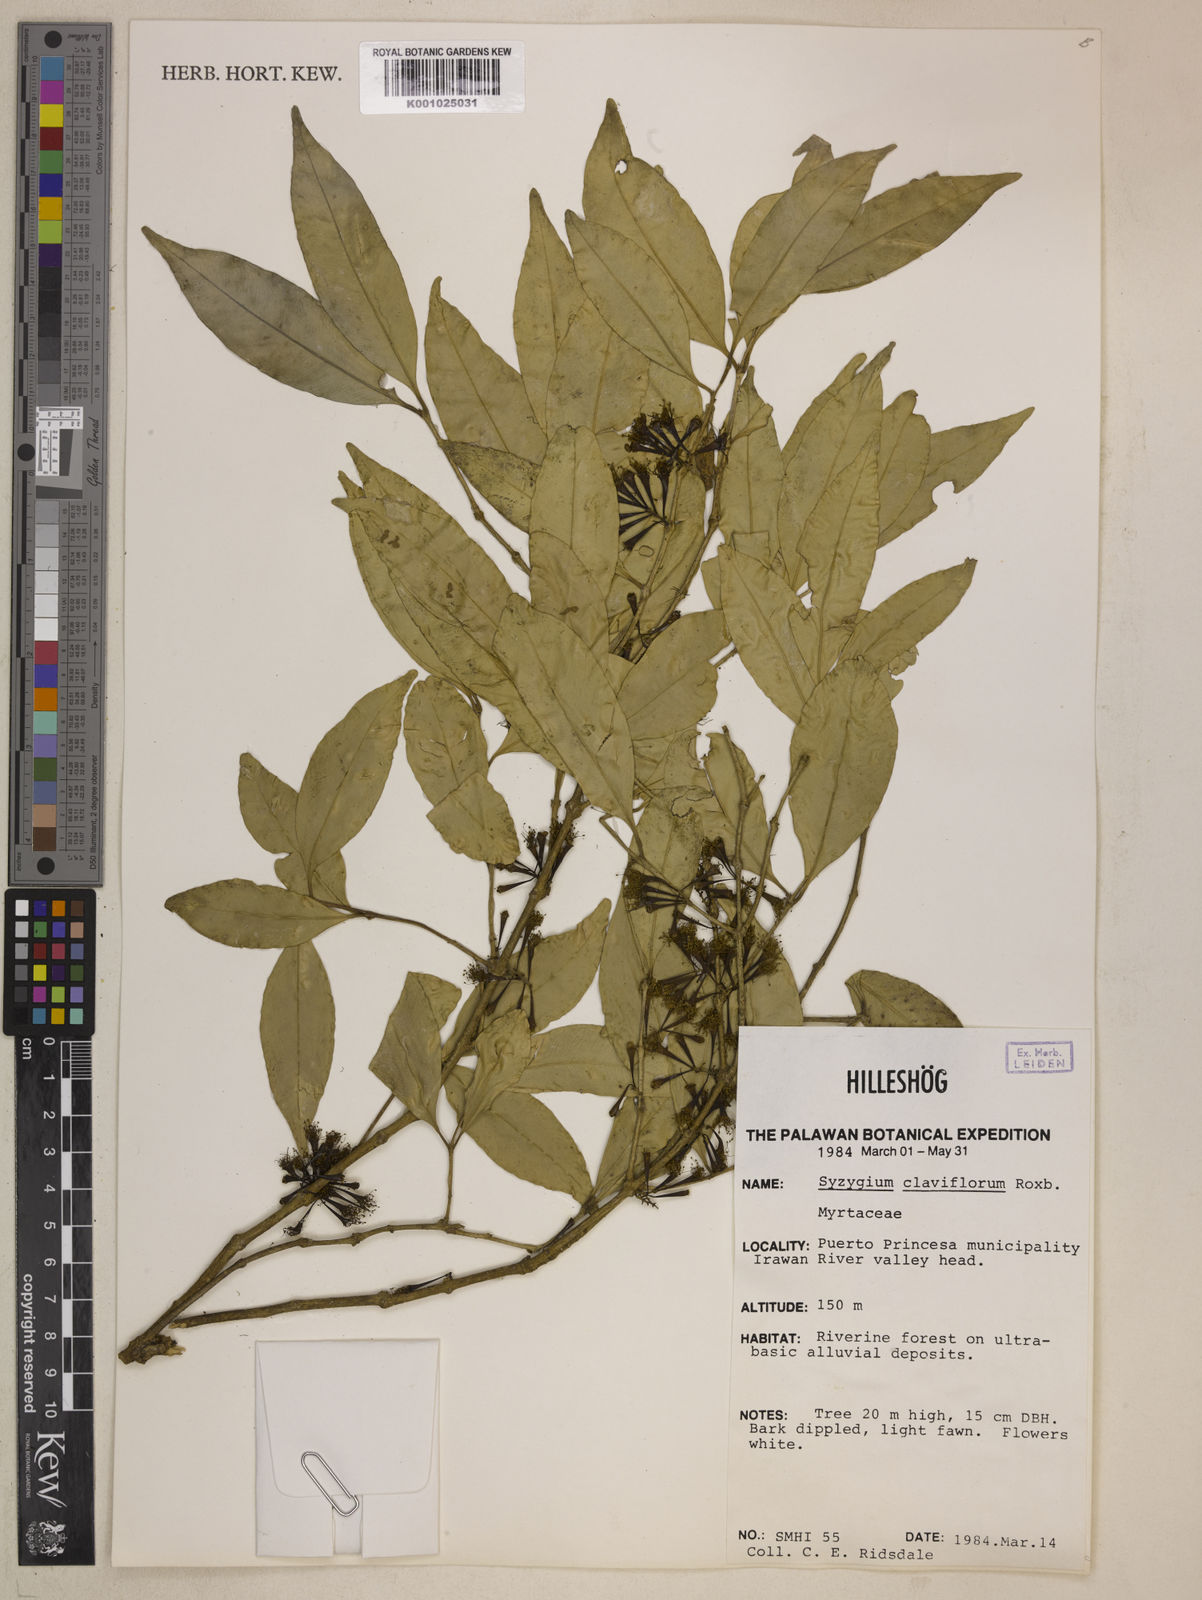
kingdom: Plantae
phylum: Tracheophyta
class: Magnoliopsida
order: Myrtales
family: Myrtaceae
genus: Syzygium
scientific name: Syzygium claviflorum
